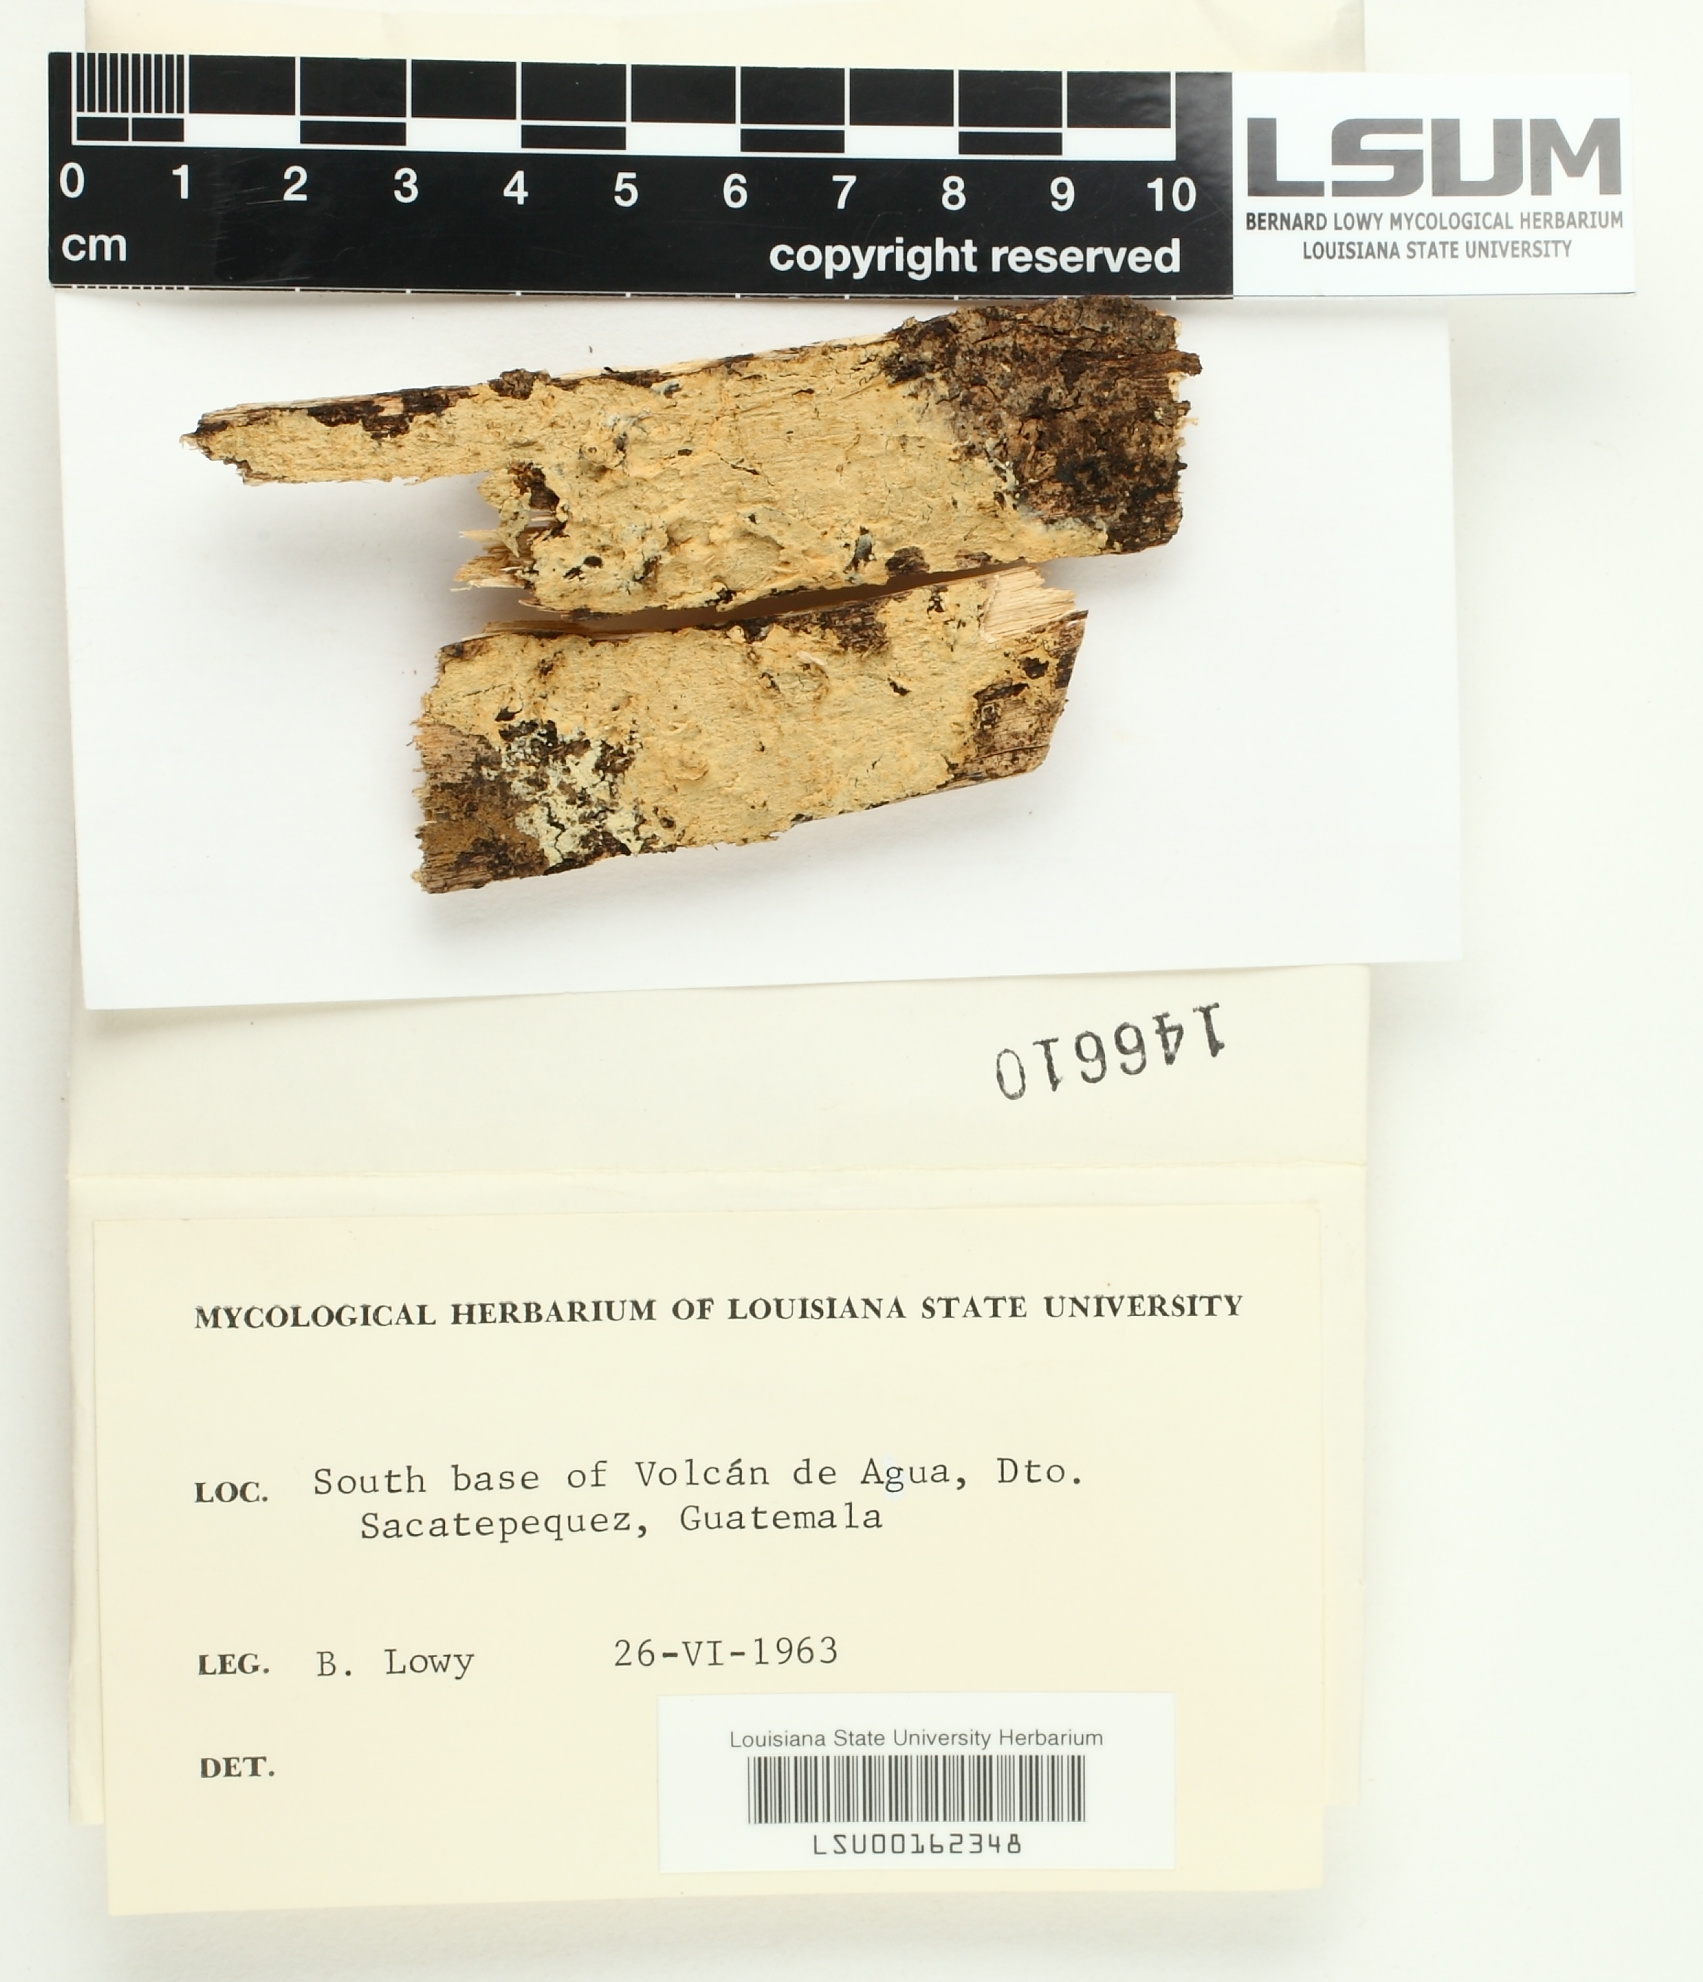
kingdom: Fungi
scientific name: Fungi
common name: Fungi
